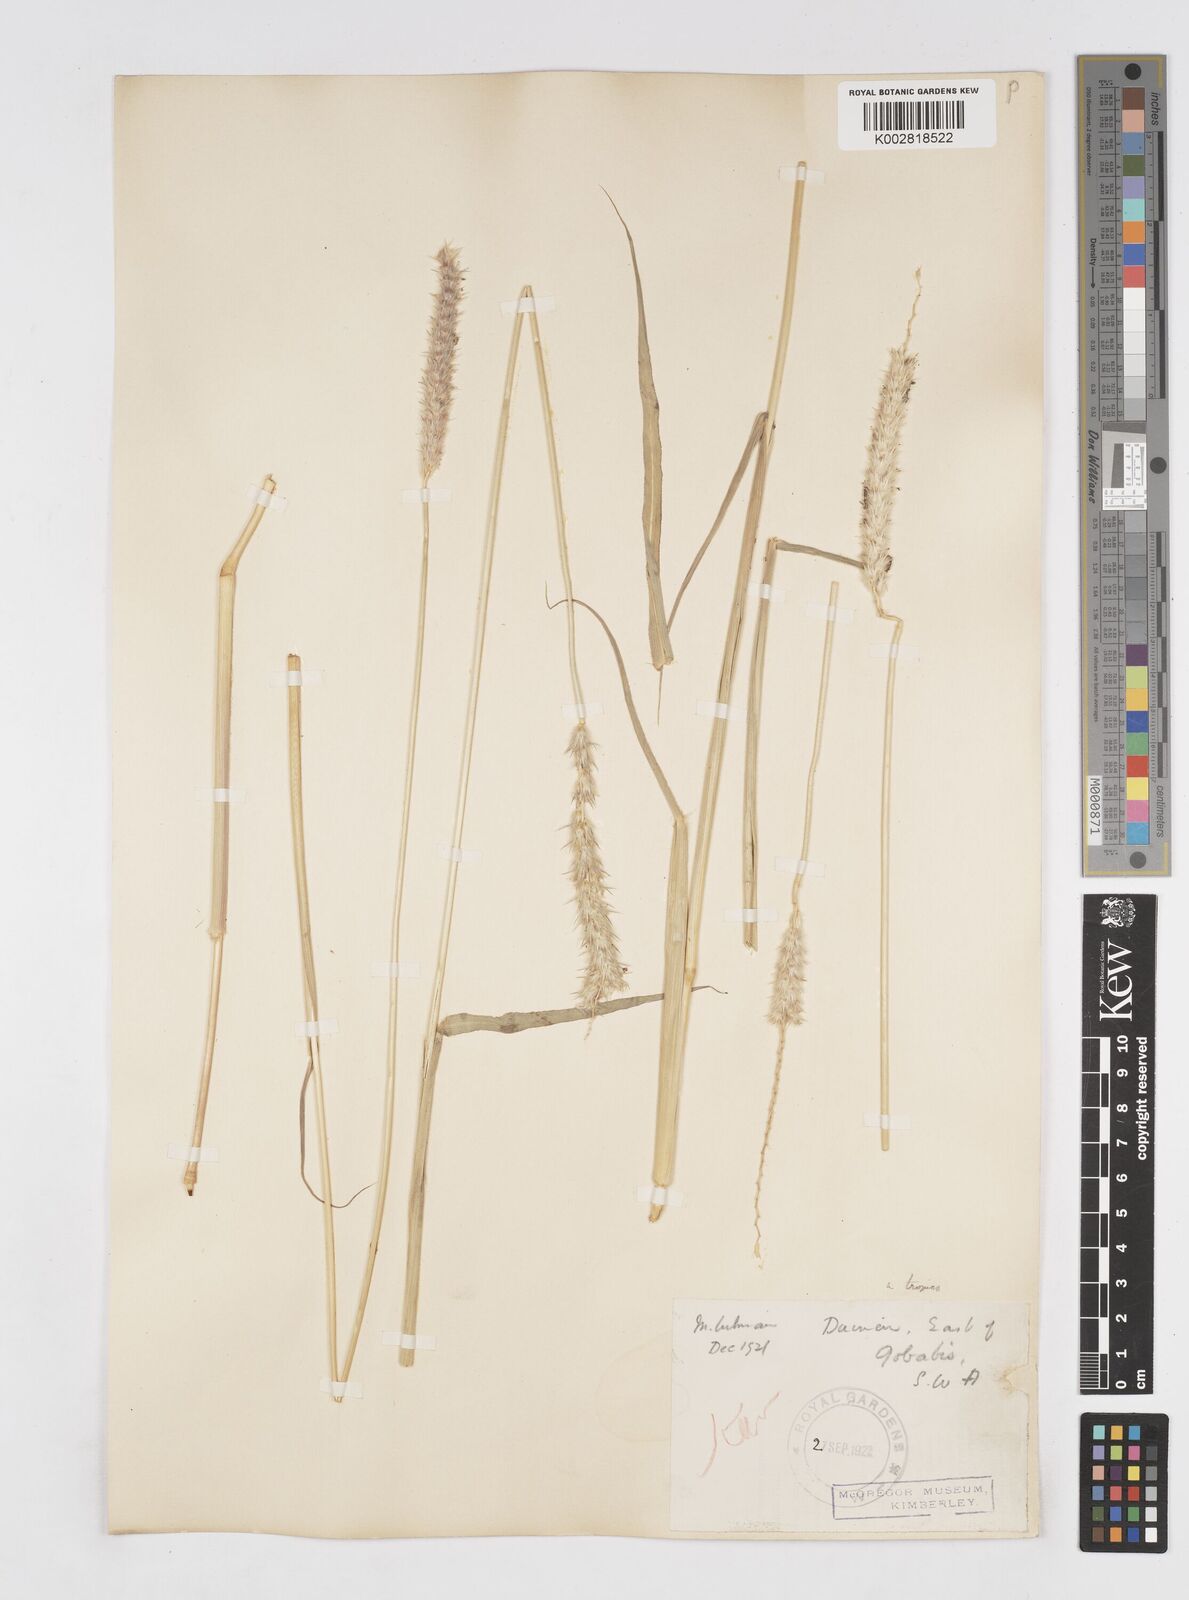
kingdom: Plantae
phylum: Tracheophyta
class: Liliopsida
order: Poales
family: Poaceae
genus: Anthephora
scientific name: Anthephora pubescens
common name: Wool grass
